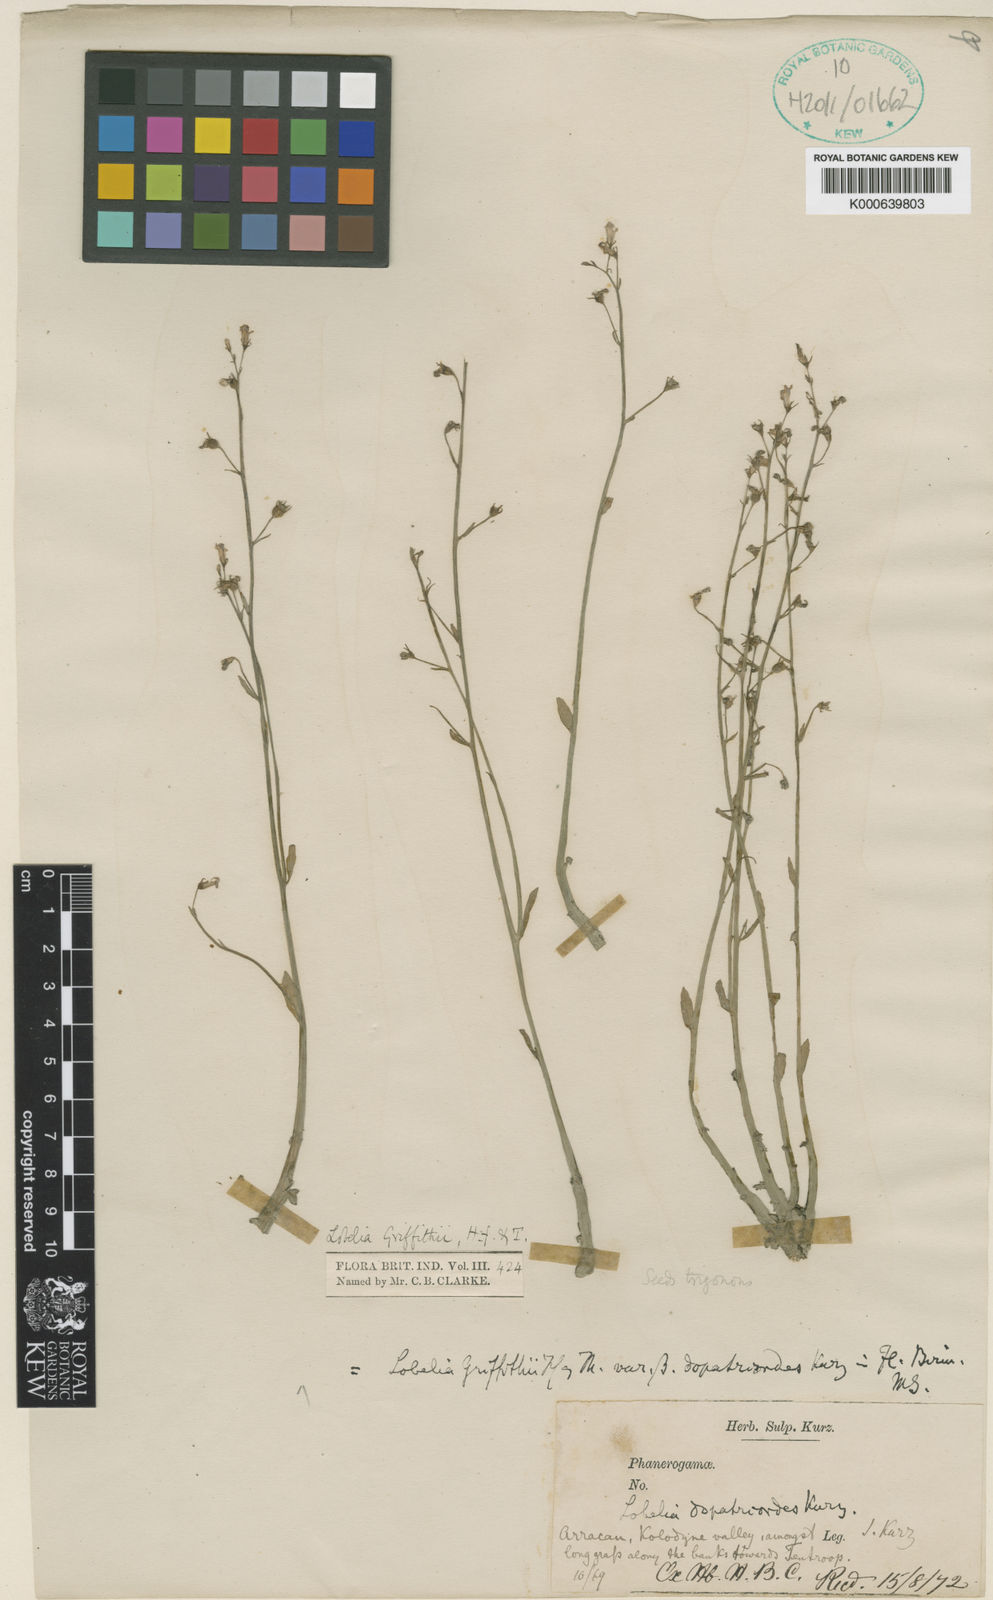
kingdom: Plantae
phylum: Tracheophyta
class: Magnoliopsida
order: Asterales
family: Campanulaceae
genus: Lobelia
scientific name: Lobelia griffithii
